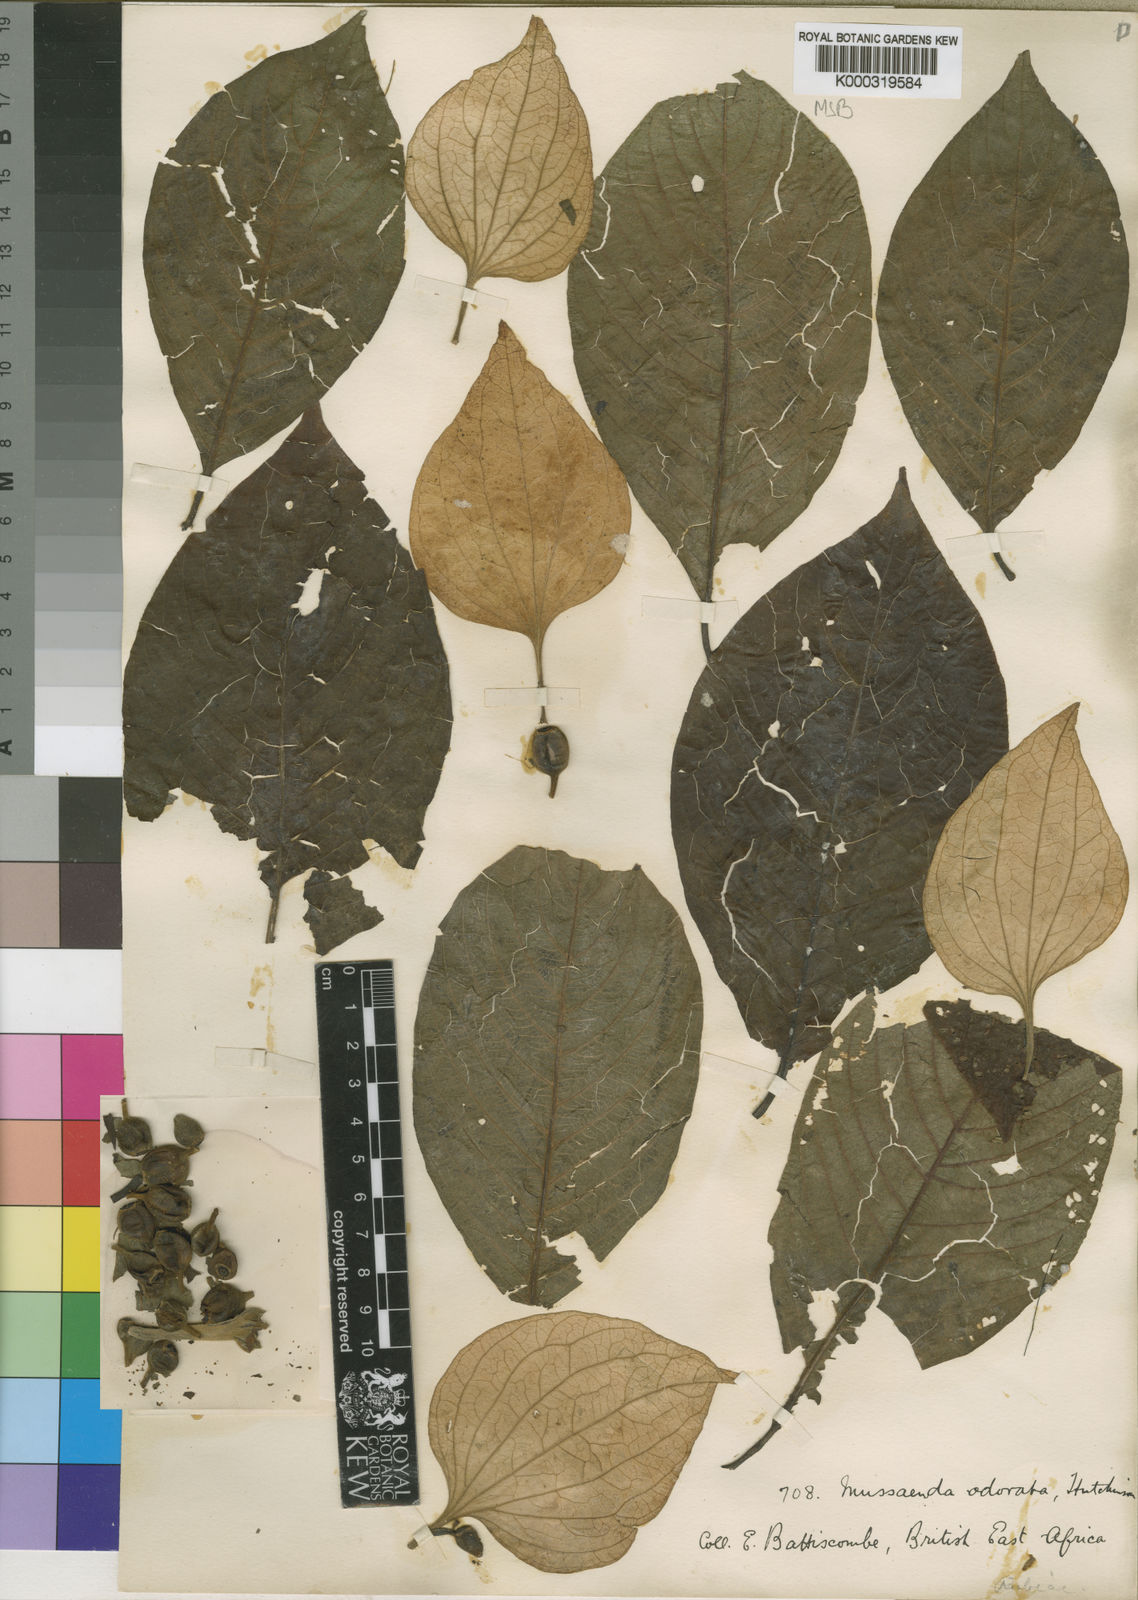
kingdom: Plantae
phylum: Tracheophyta
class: Magnoliopsida
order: Gentianales
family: Rubiaceae
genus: Mussaenda
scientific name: Mussaenda microdonta
